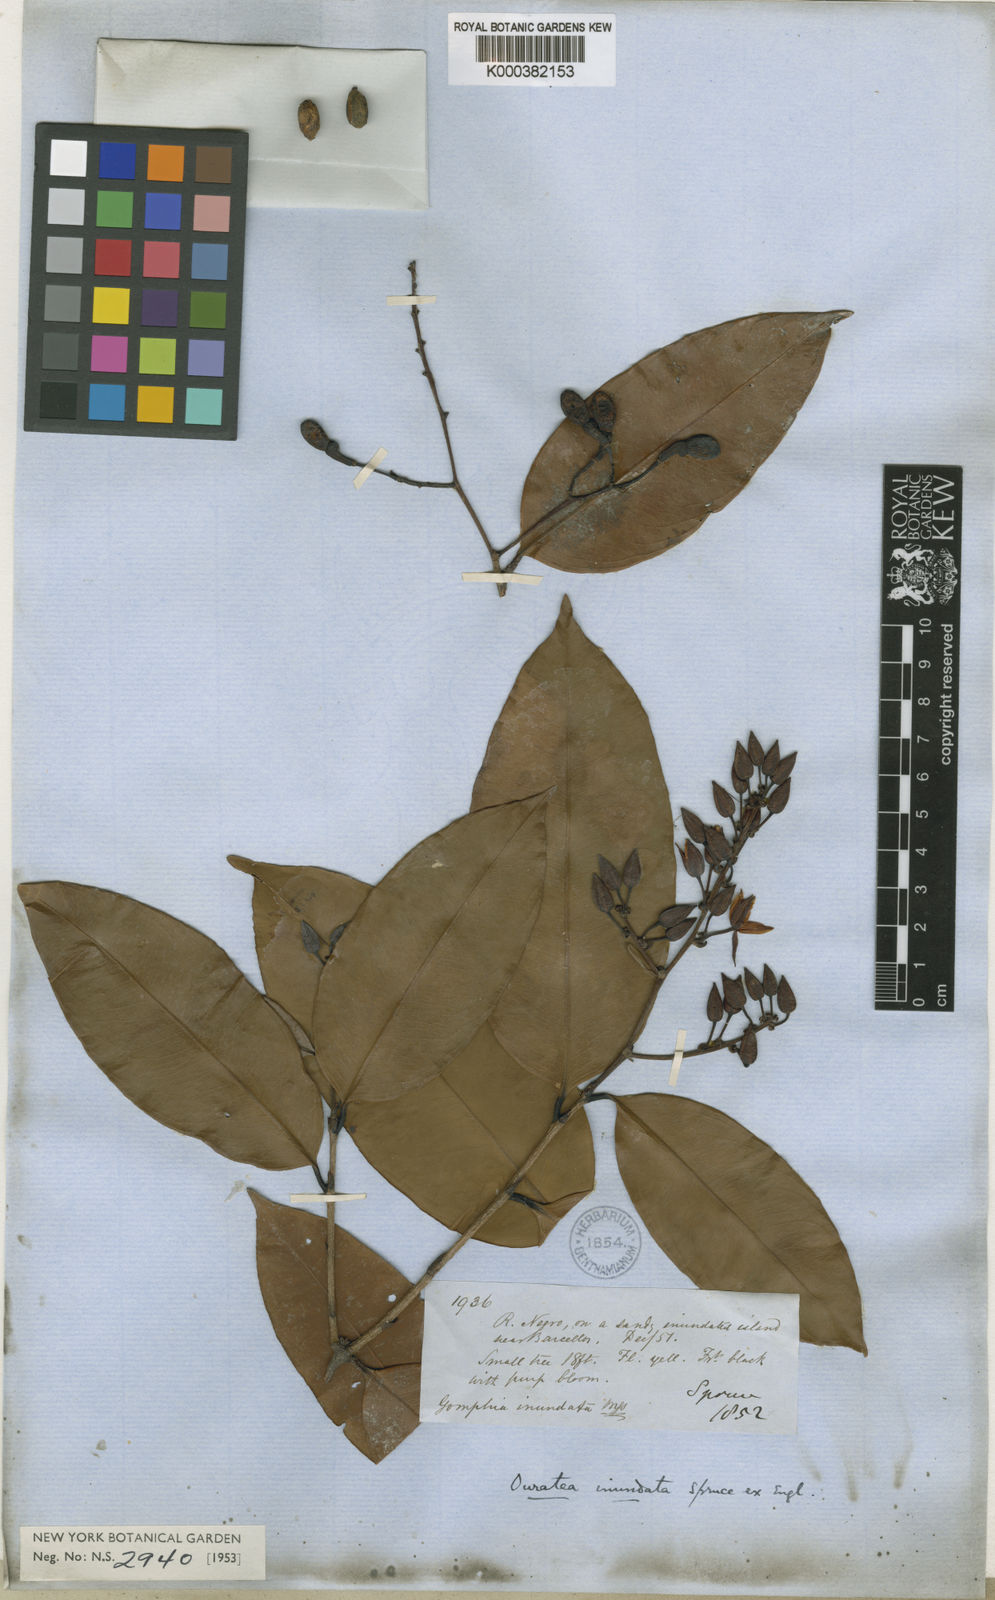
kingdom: Plantae
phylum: Tracheophyta
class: Magnoliopsida
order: Malpighiales
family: Ochnaceae
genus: Ouratea
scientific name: Ouratea inundata
